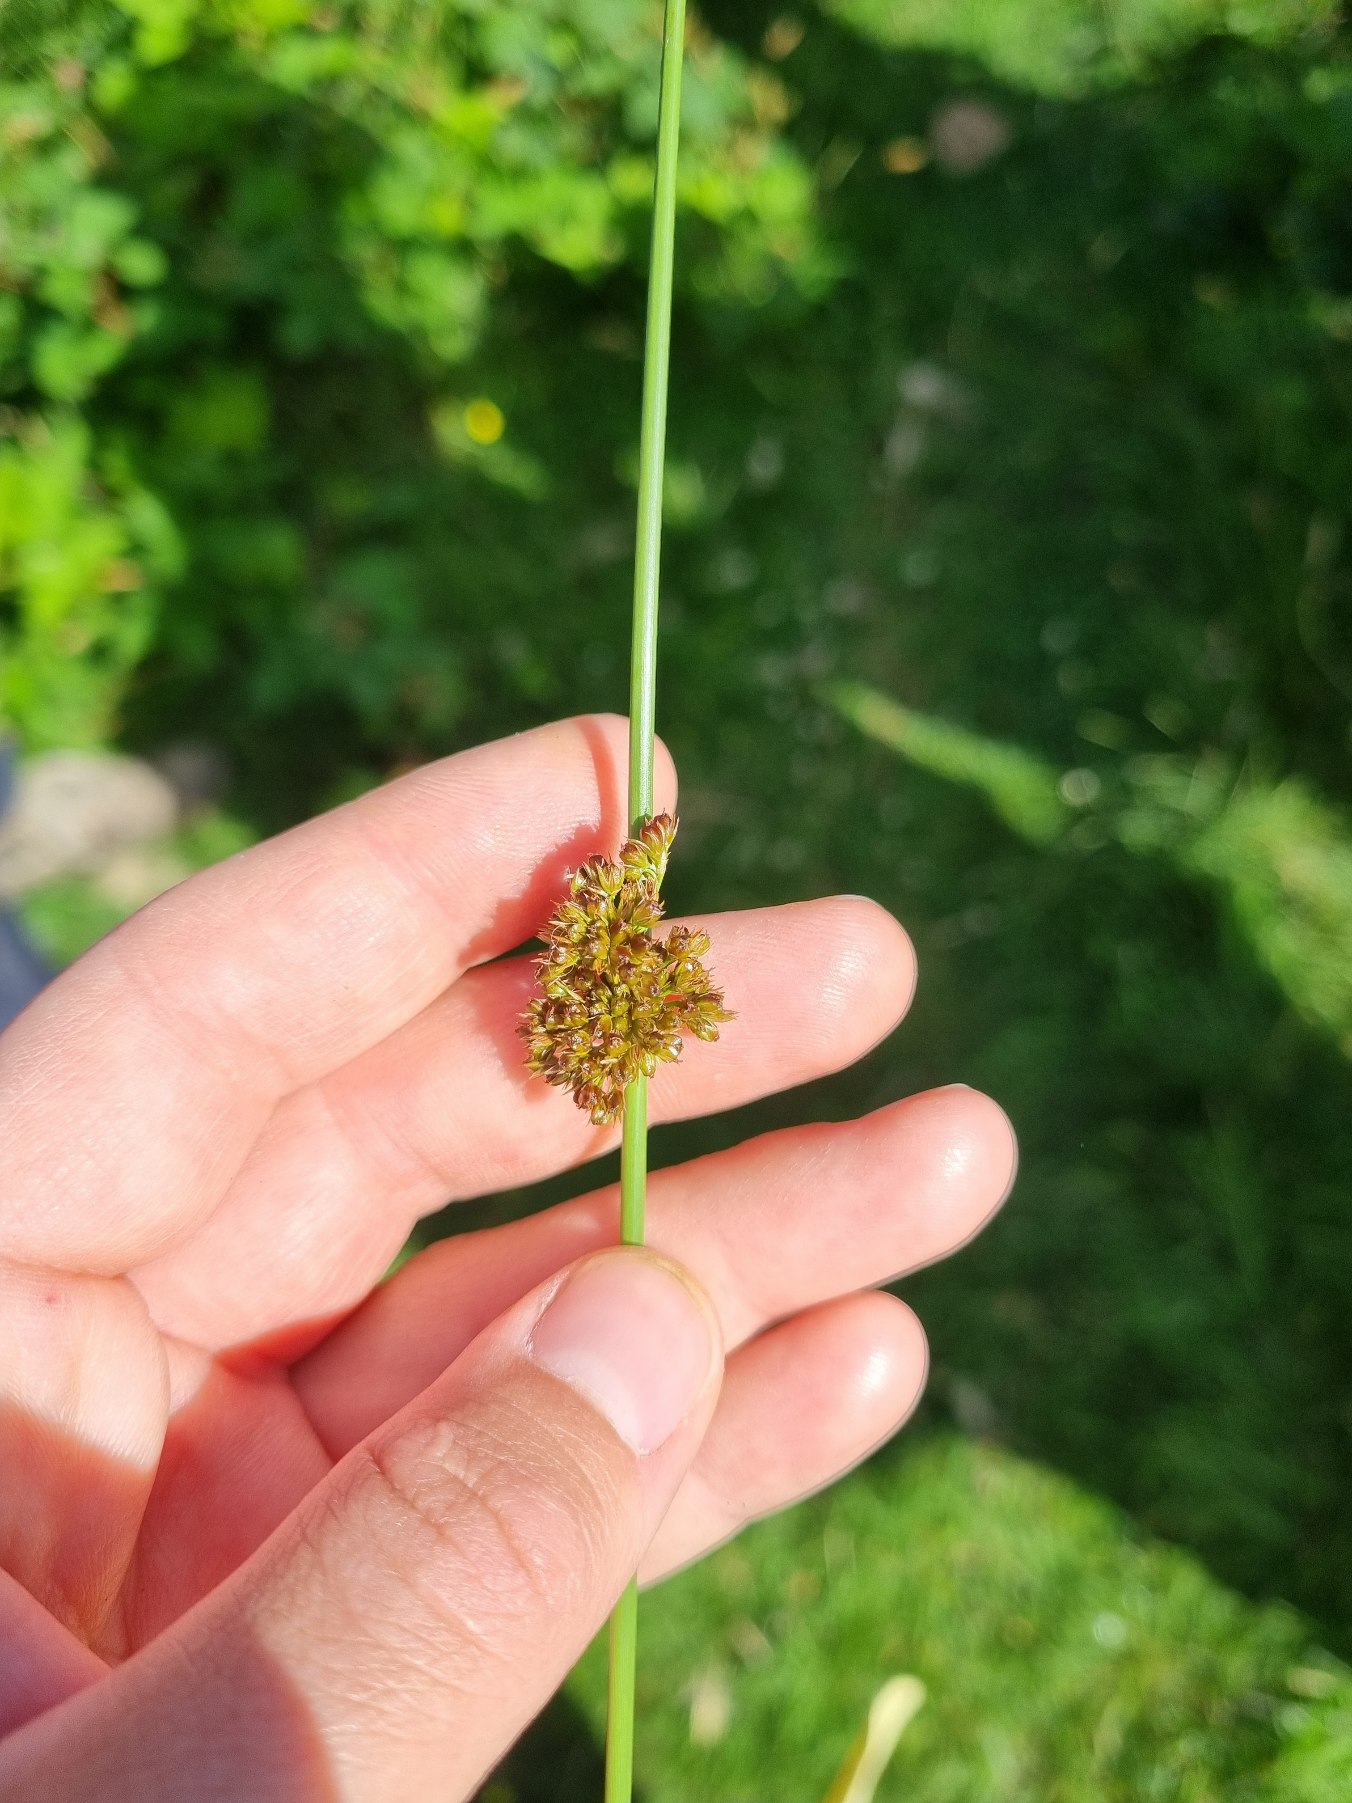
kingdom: Plantae
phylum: Tracheophyta
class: Liliopsida
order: Poales
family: Juncaceae
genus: Juncus
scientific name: Juncus effusus
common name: Lyse-siv
